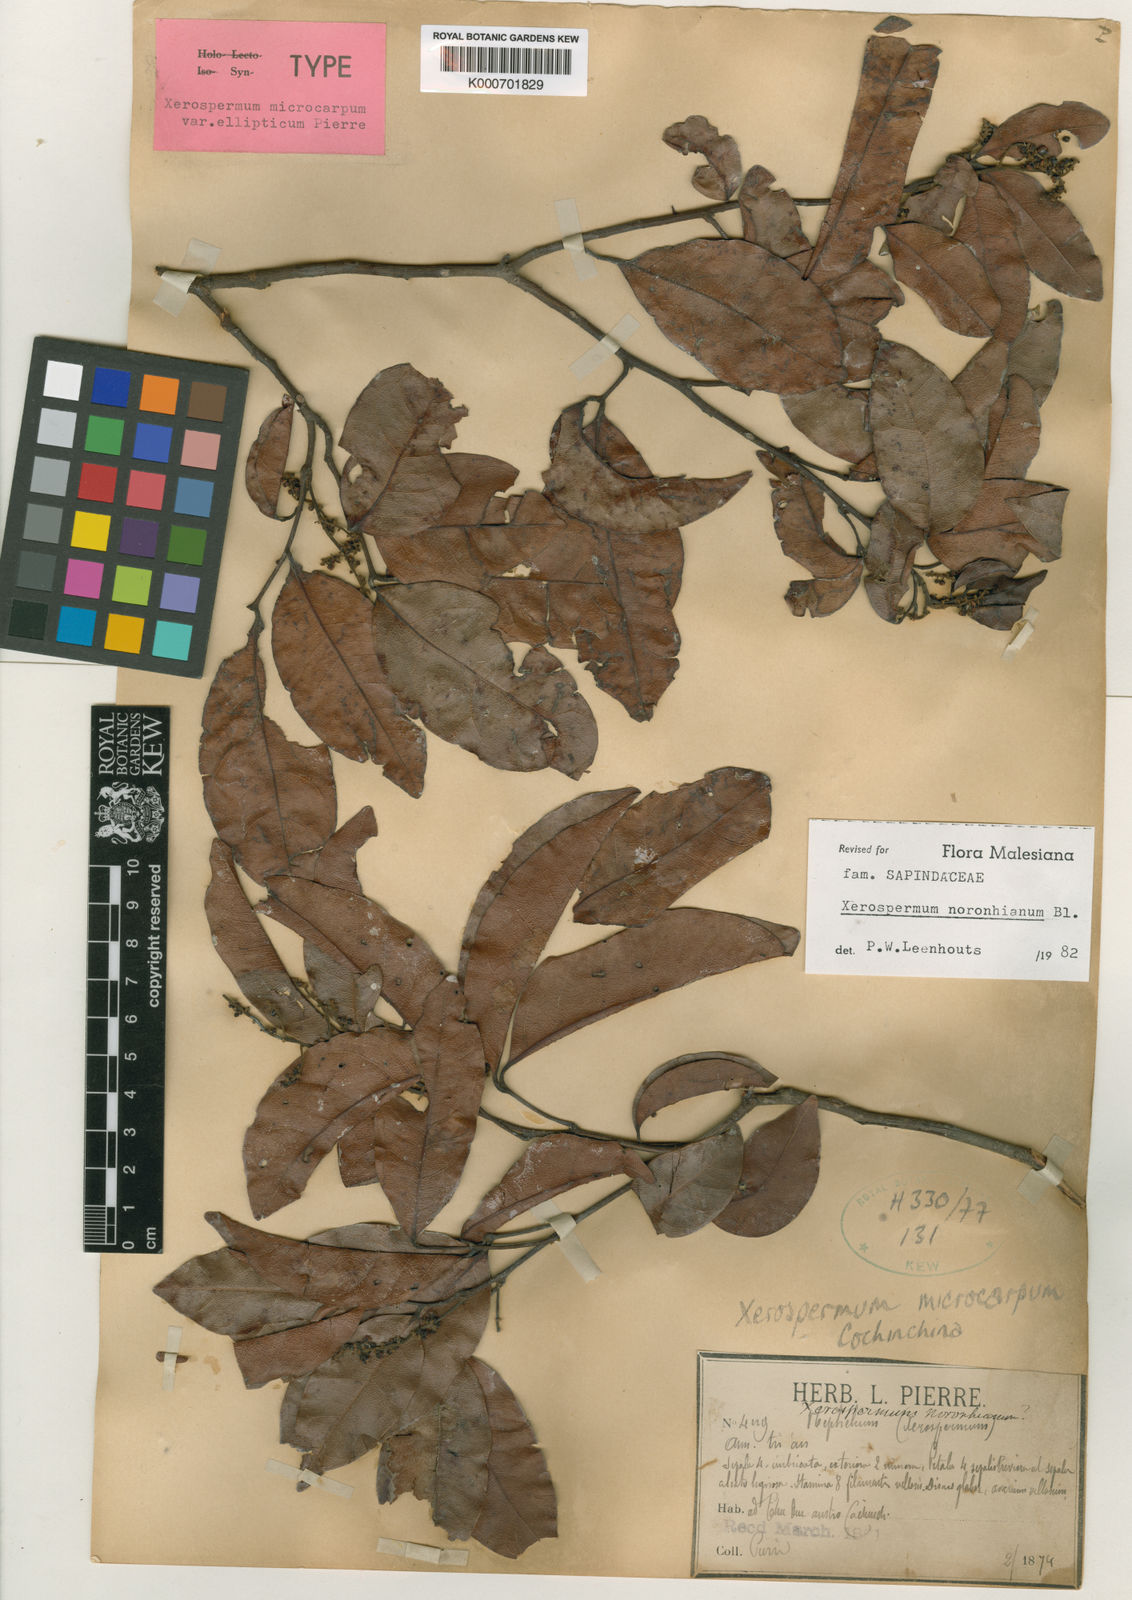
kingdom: Plantae
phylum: Tracheophyta
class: Magnoliopsida
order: Sapindales
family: Sapindaceae
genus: Xerospermum
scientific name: Xerospermum noronhianum
